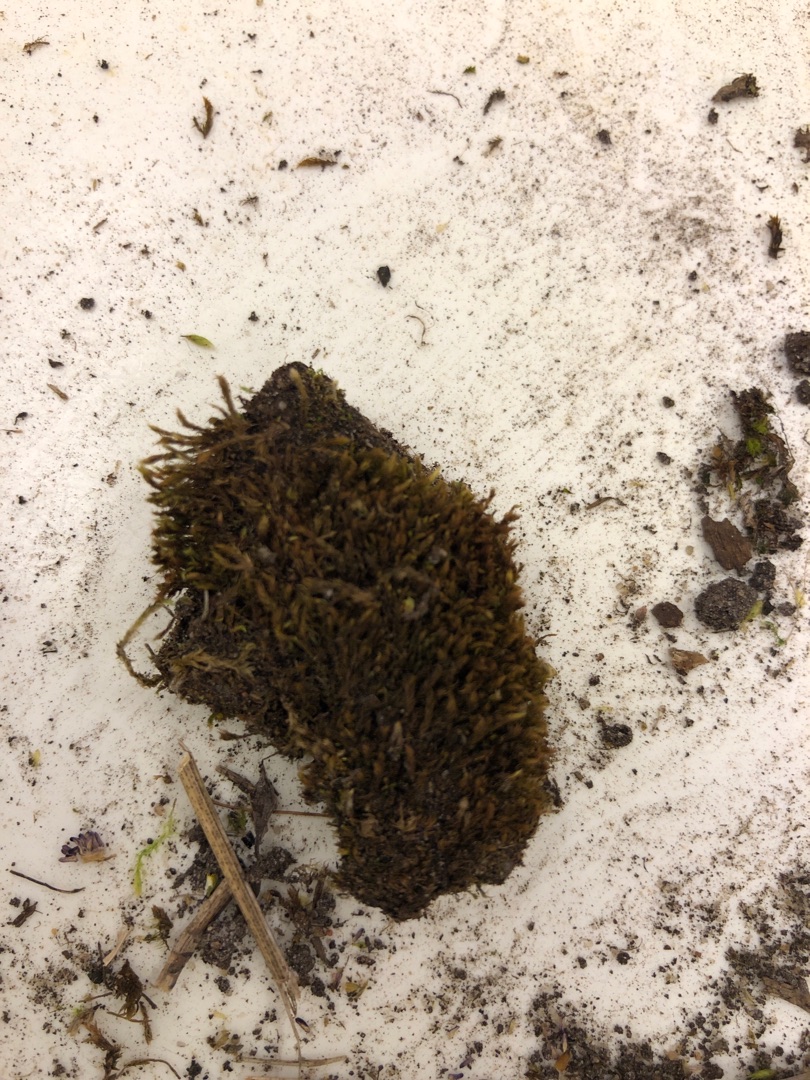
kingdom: Plantae
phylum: Bryophyta
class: Bryopsida
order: Dicranales
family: Ditrichaceae
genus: Ceratodon
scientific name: Ceratodon purpureus
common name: Rød horntand
